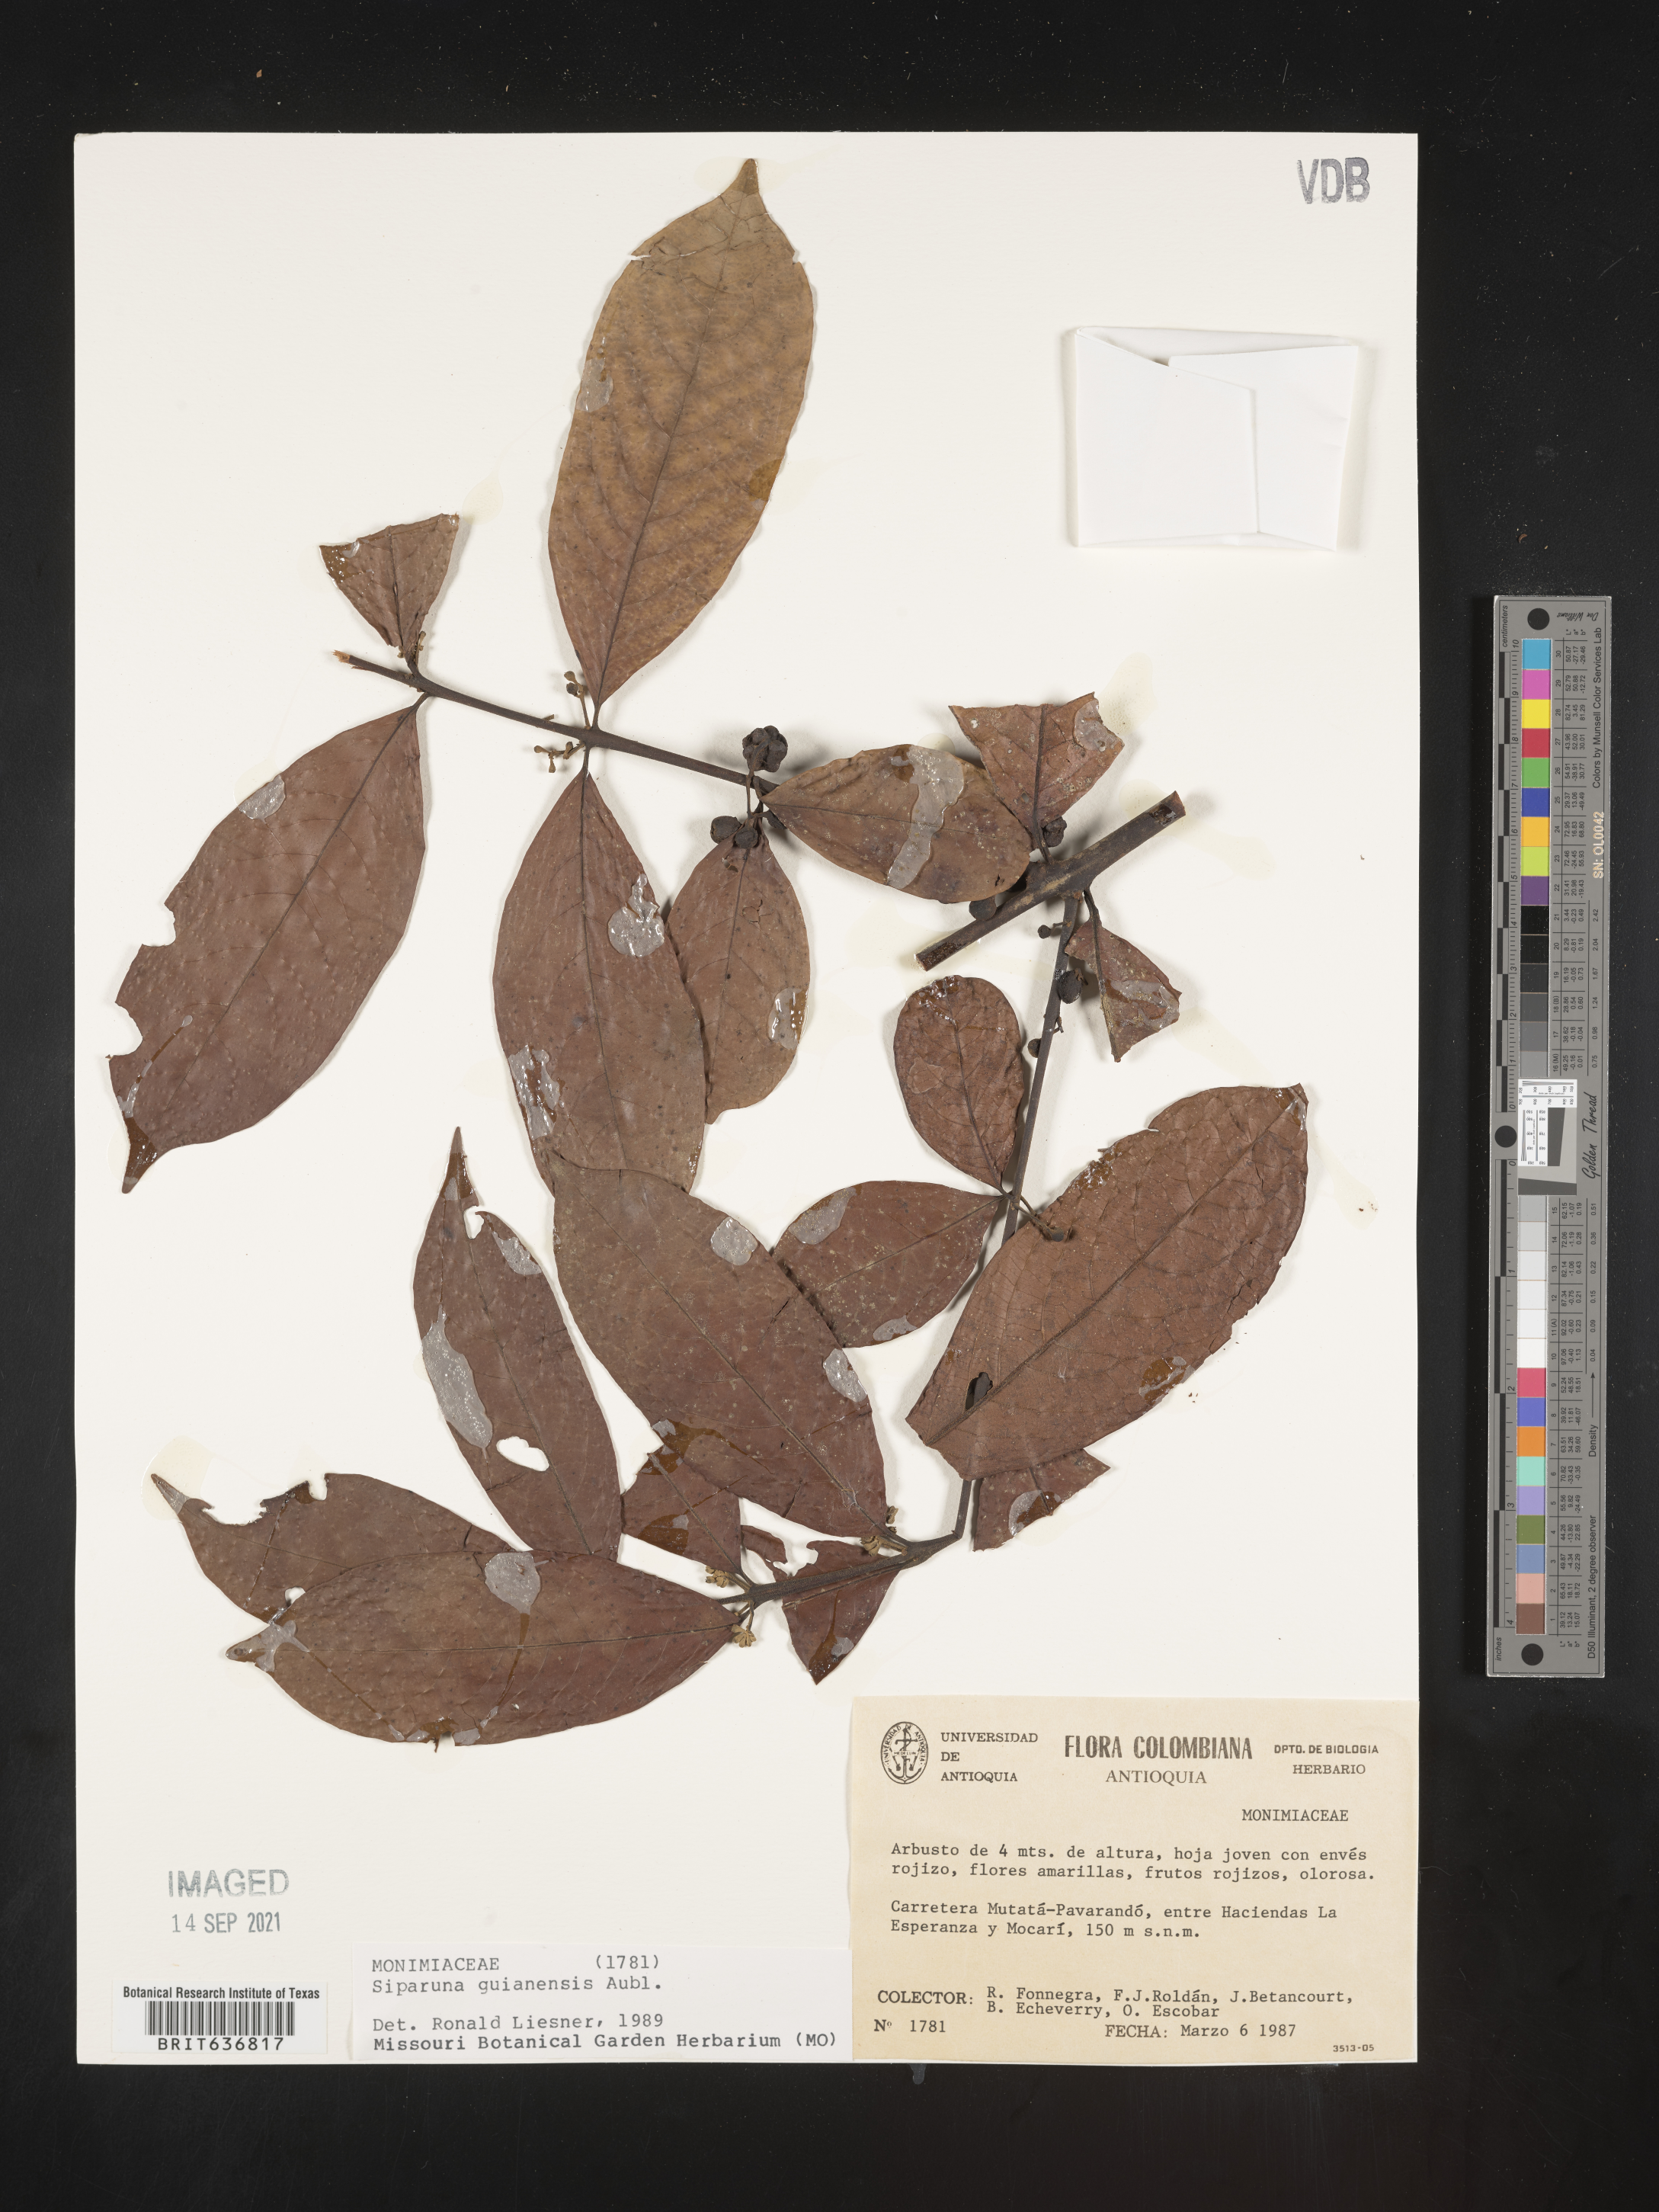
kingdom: Plantae
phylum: Tracheophyta
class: Magnoliopsida
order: Laurales
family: Siparunaceae
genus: Siparuna
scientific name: Siparuna
